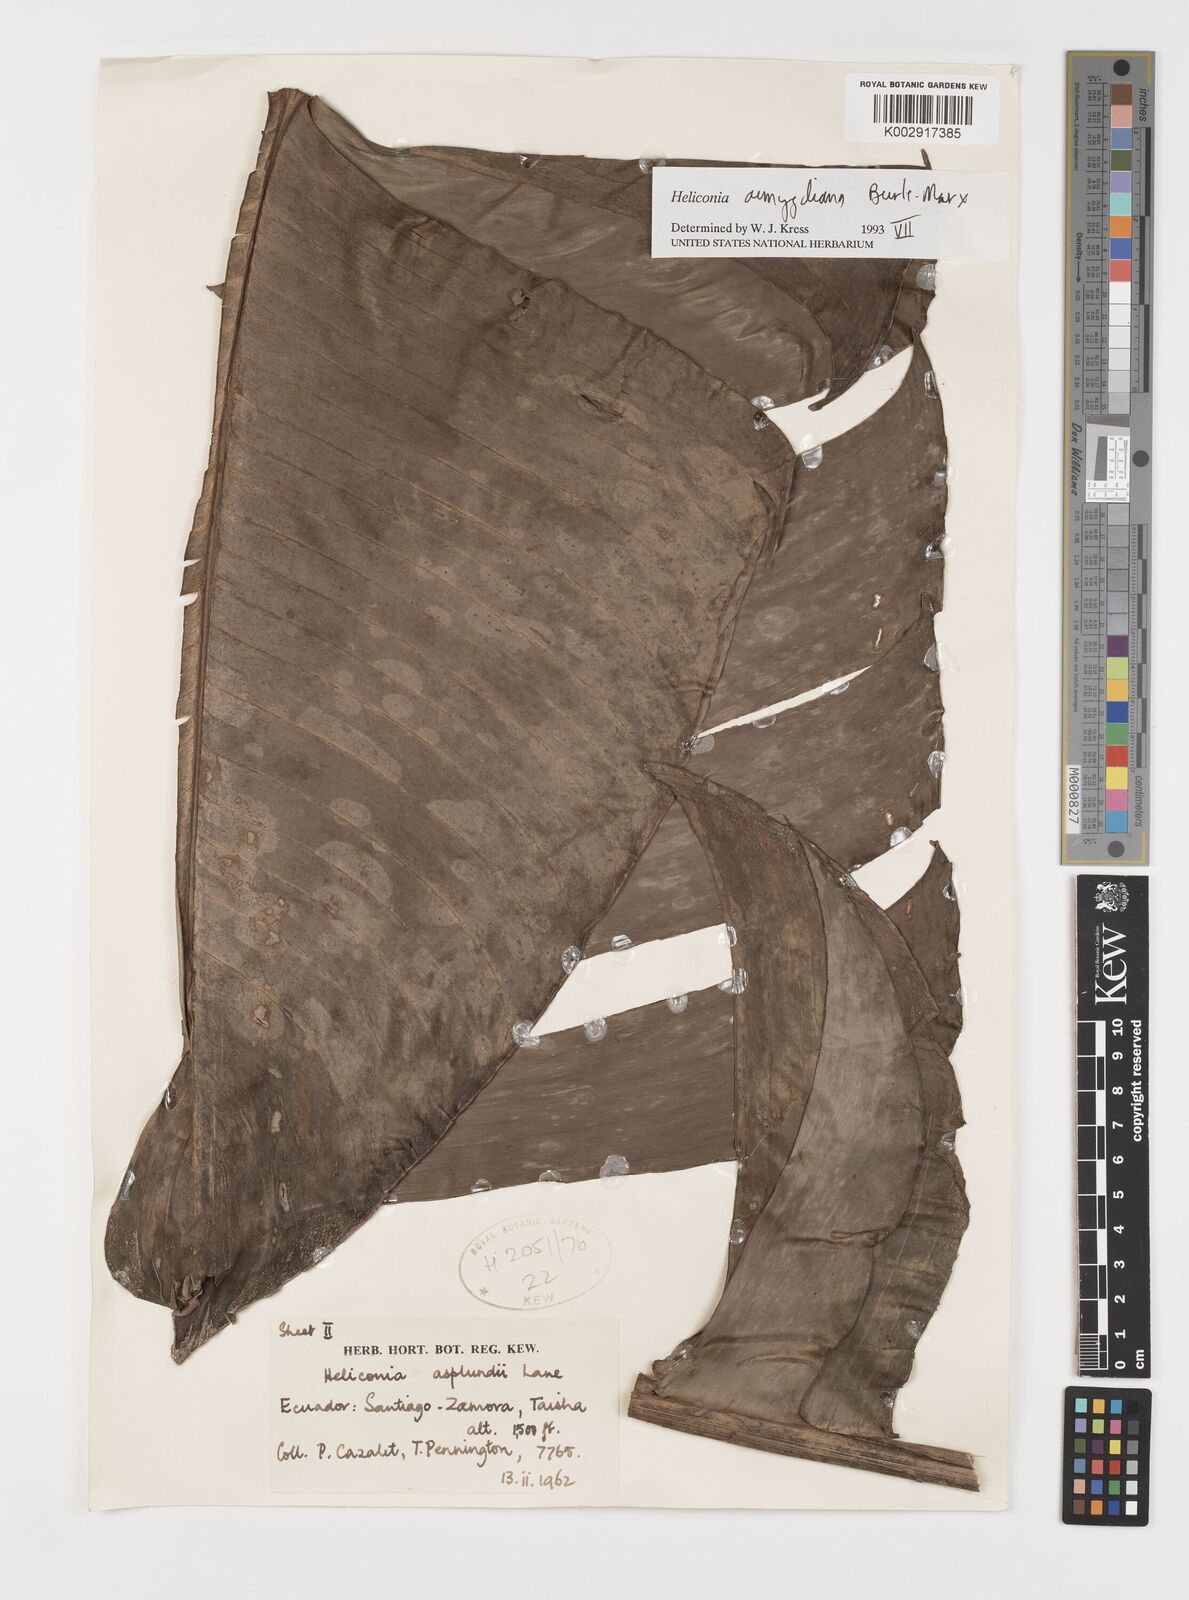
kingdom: Plantae
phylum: Tracheophyta
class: Liliopsida
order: Zingiberales
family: Heliconiaceae
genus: Heliconia
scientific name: Heliconia aemygdiana
